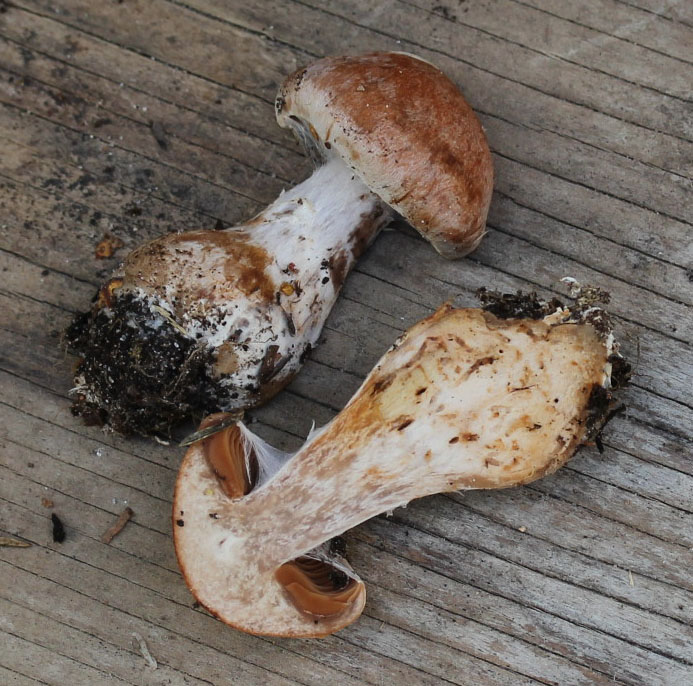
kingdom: Fungi
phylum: Basidiomycota
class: Agaricomycetes
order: Agaricales
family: Cortinariaceae
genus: Cortinarius
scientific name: Cortinarius bivelus
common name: orangebrun slørhat
